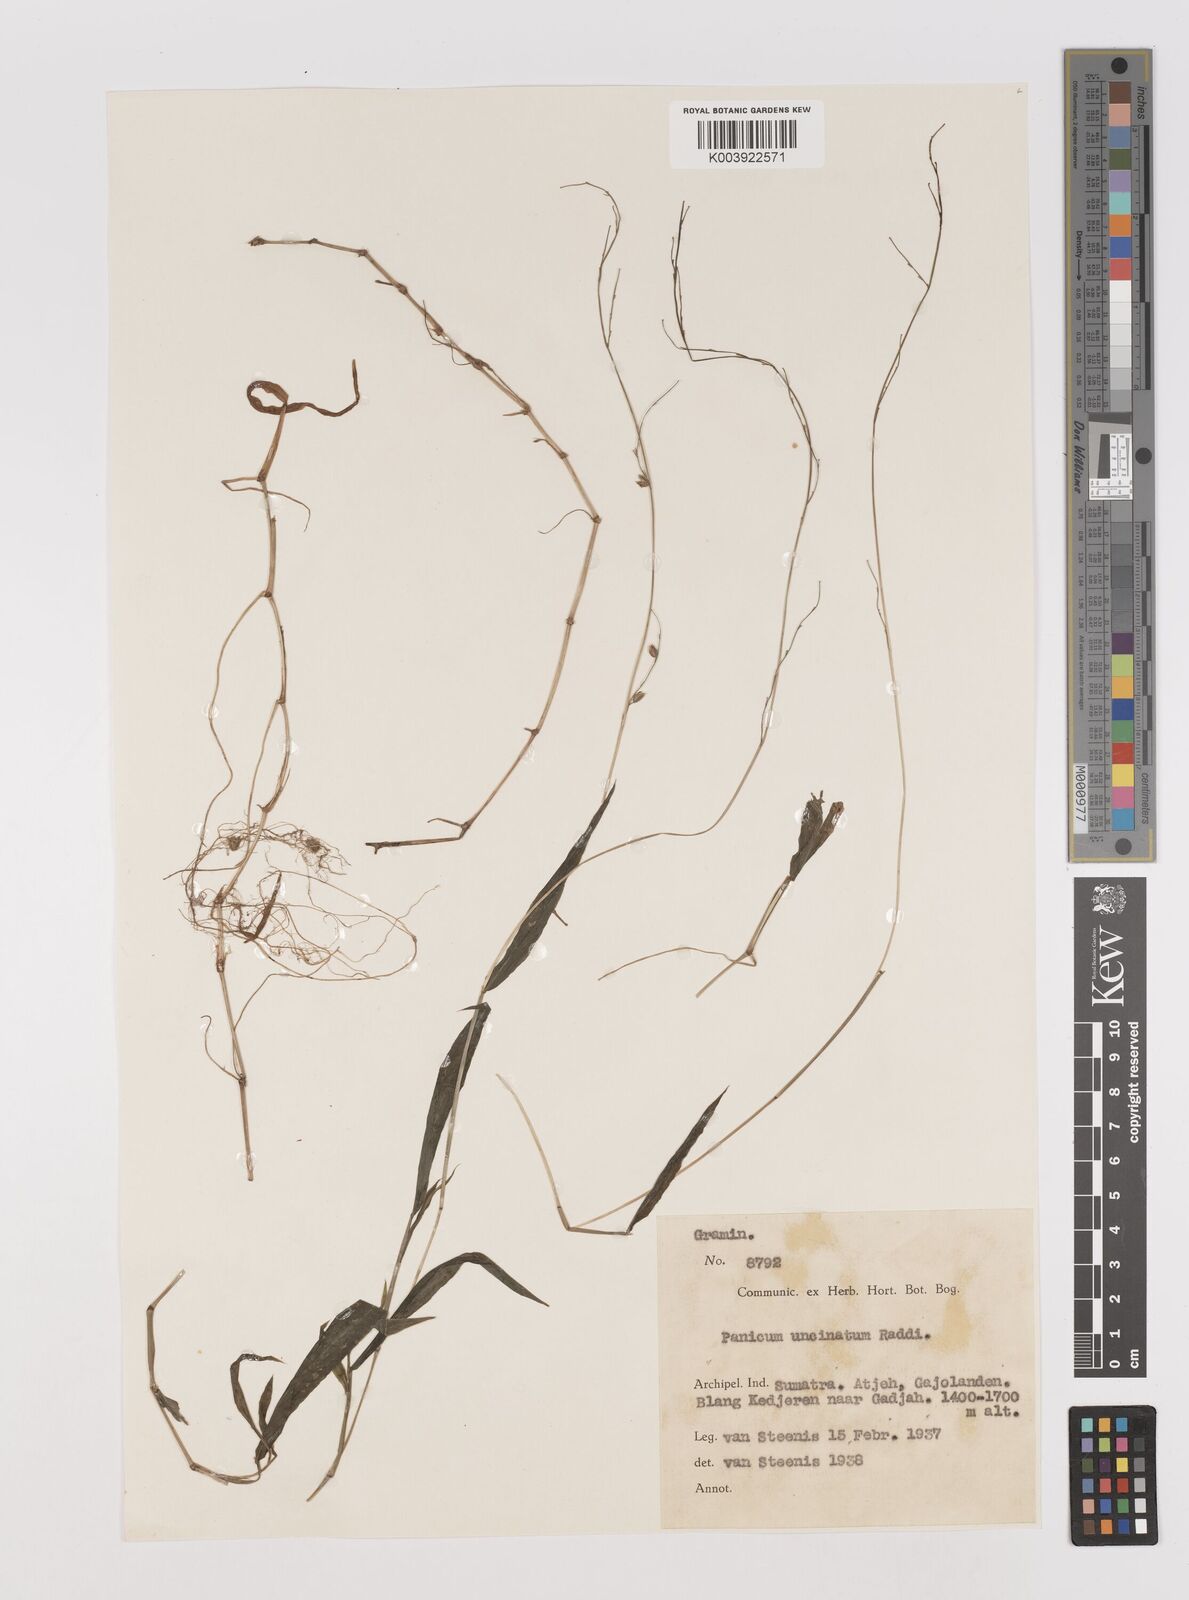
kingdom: Plantae
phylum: Tracheophyta
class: Liliopsida
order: Poales
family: Poaceae
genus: Pseudechinolaena
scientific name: Pseudechinolaena polystachya
